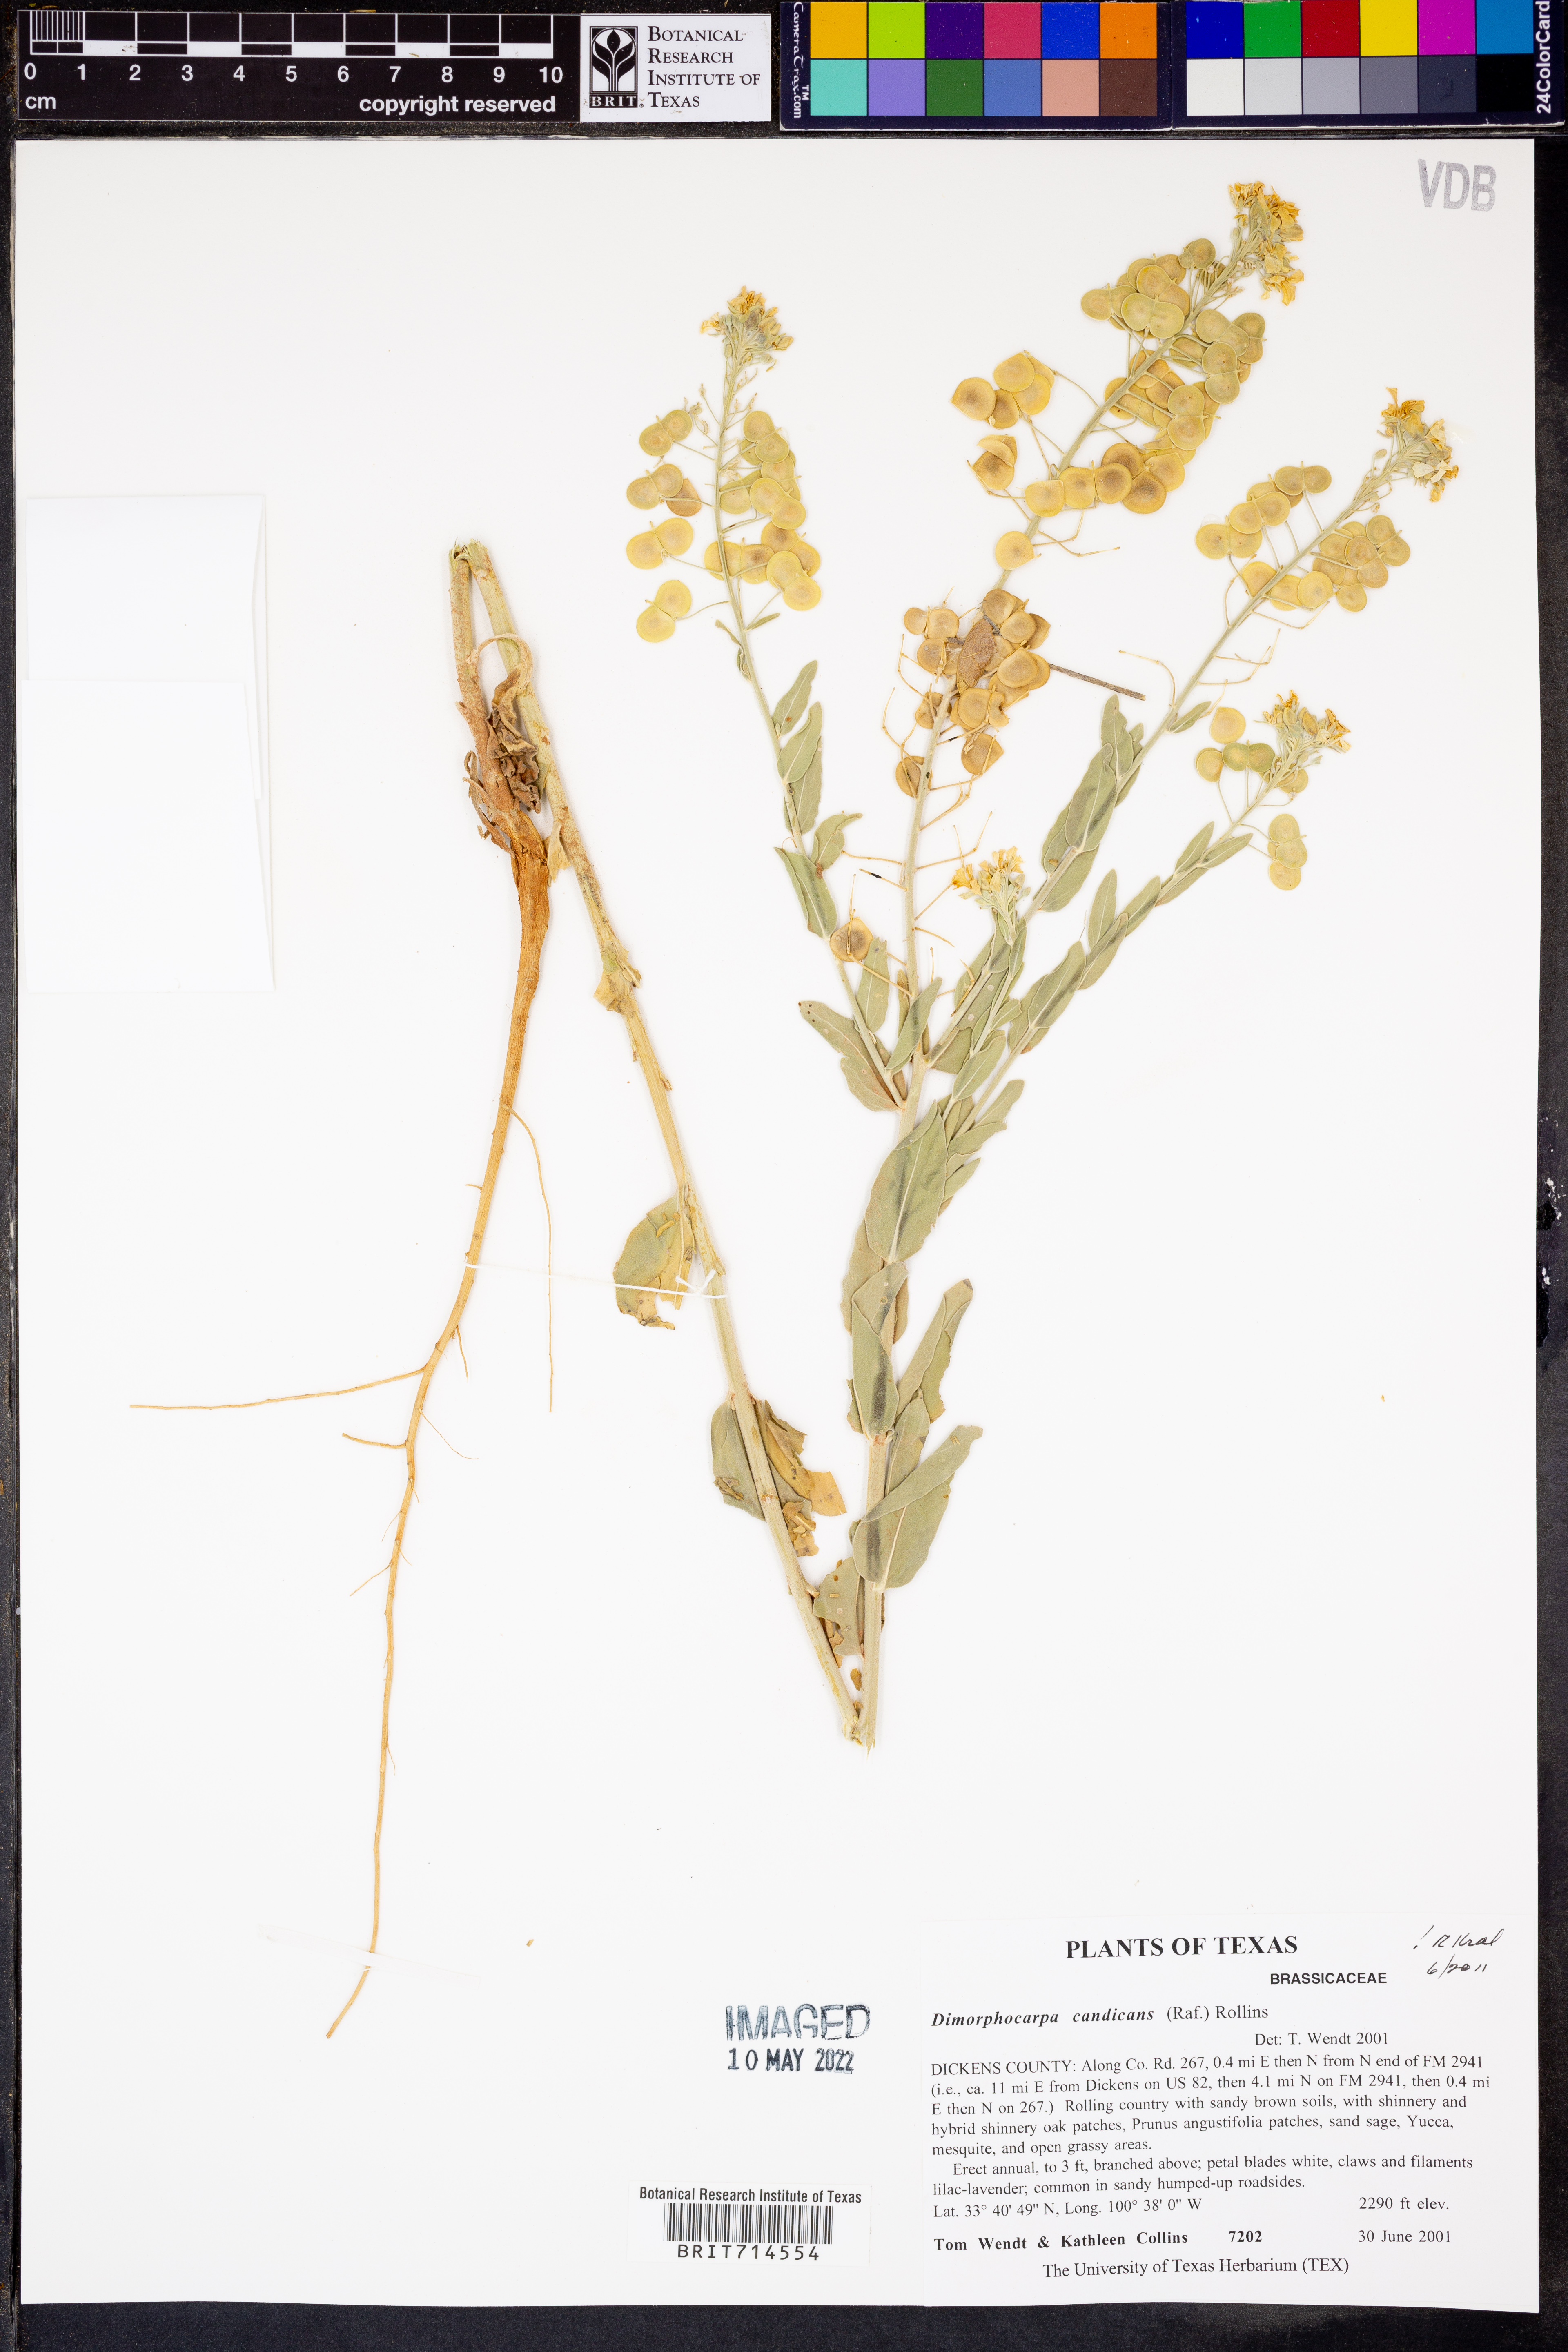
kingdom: Plantae
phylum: Tracheophyta
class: Magnoliopsida
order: Brassicales
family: Brassicaceae
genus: Dimorphocarpa
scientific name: Dimorphocarpa candicans
